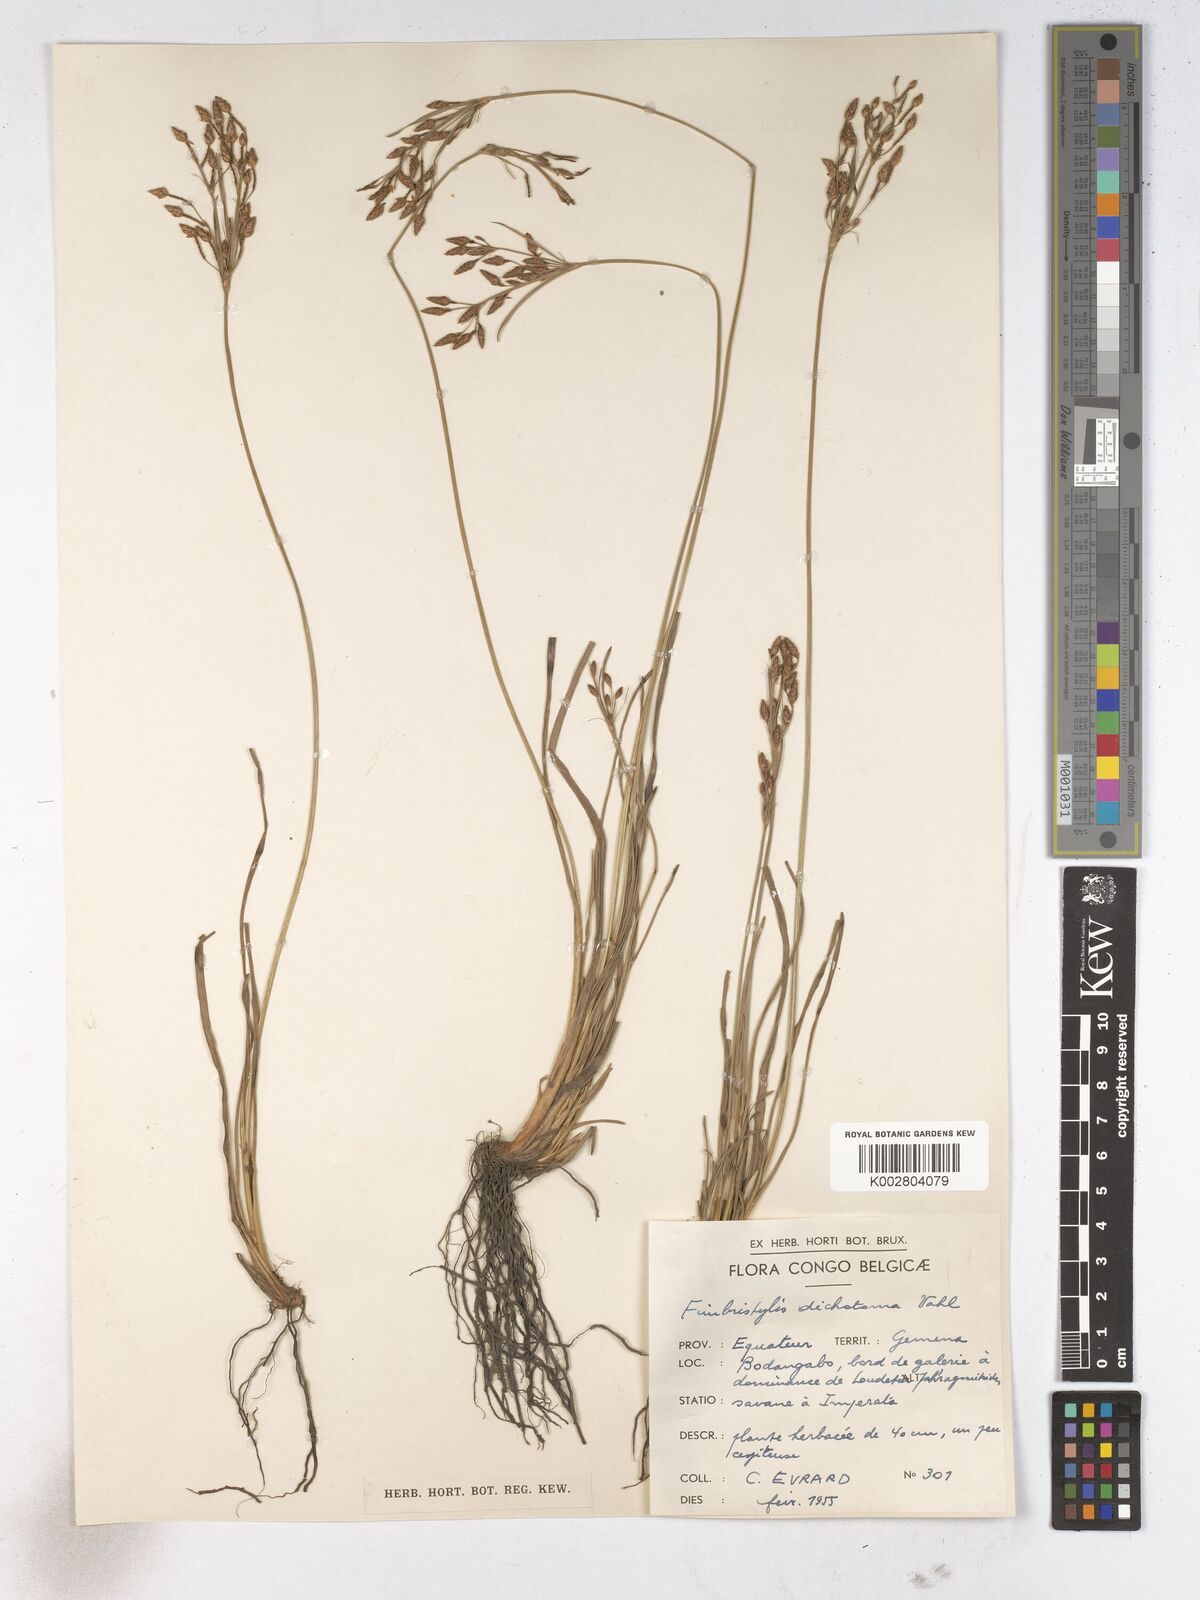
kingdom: Plantae
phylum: Tracheophyta
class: Liliopsida
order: Poales
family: Cyperaceae
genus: Fimbristylis
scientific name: Fimbristylis dichotoma
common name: Forked fimbry
